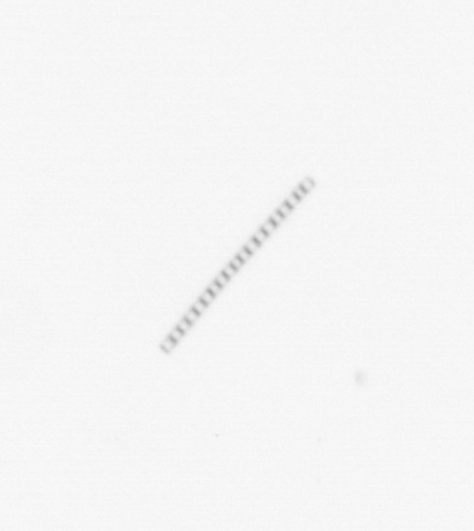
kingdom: Chromista
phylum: Ochrophyta
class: Bacillariophyceae
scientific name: Bacillariophyceae
